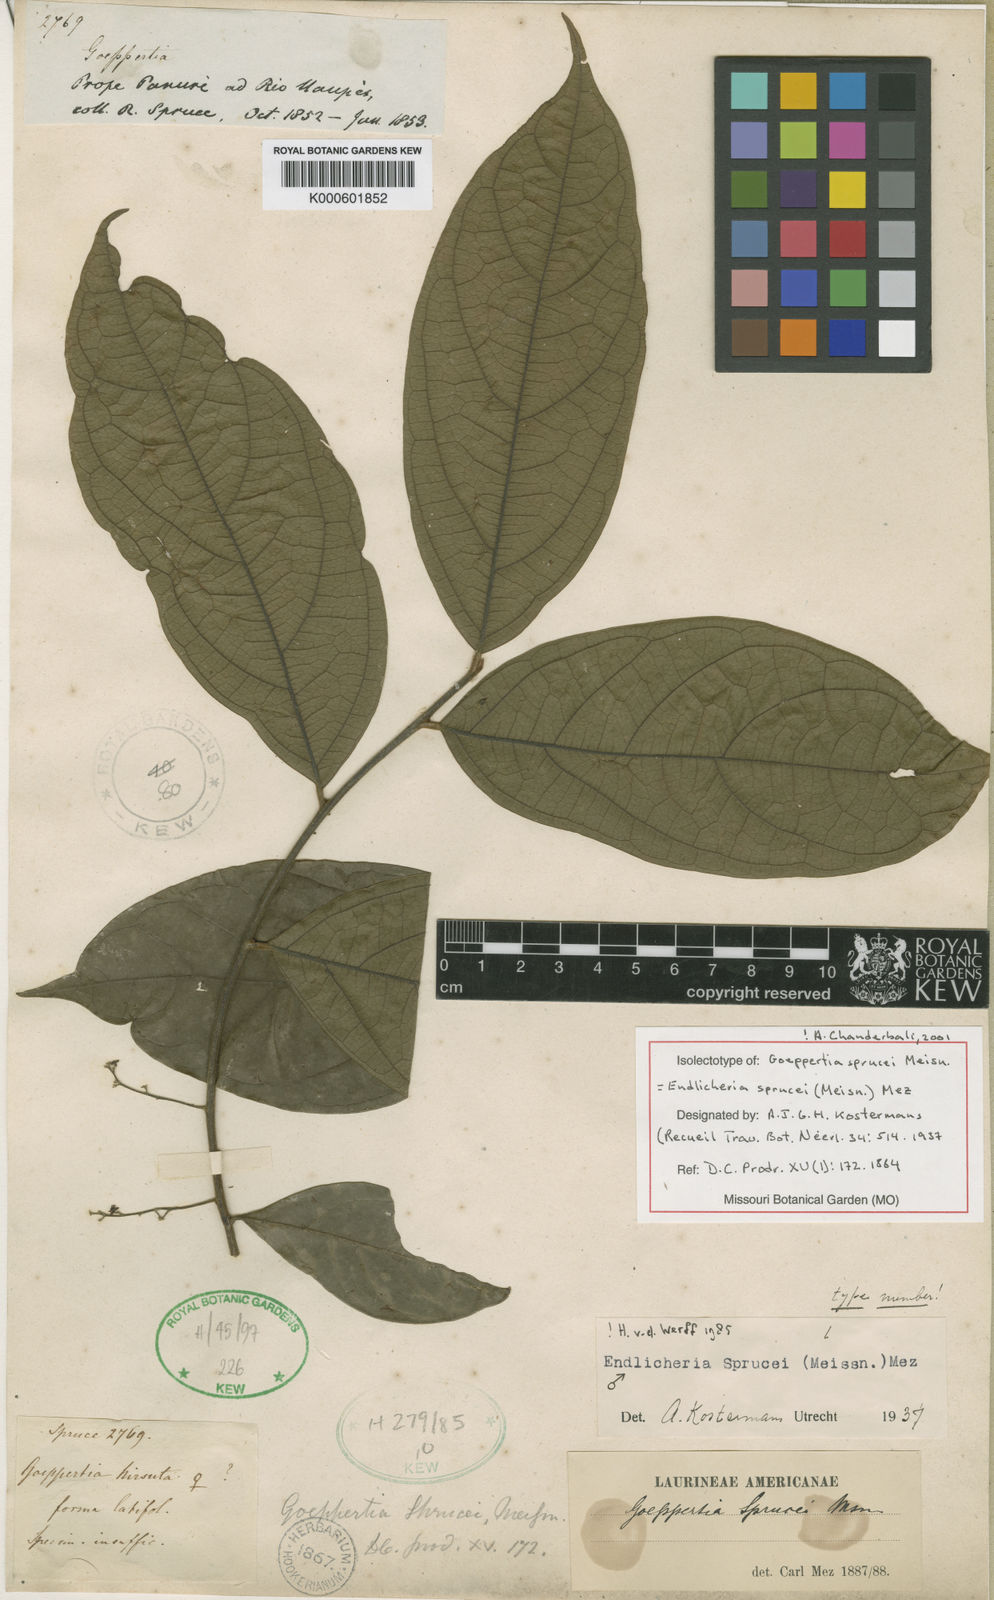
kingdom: Plantae
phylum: Tracheophyta
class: Magnoliopsida
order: Laurales
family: Lauraceae
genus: Endlicheria
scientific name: Endlicheria sprucei
